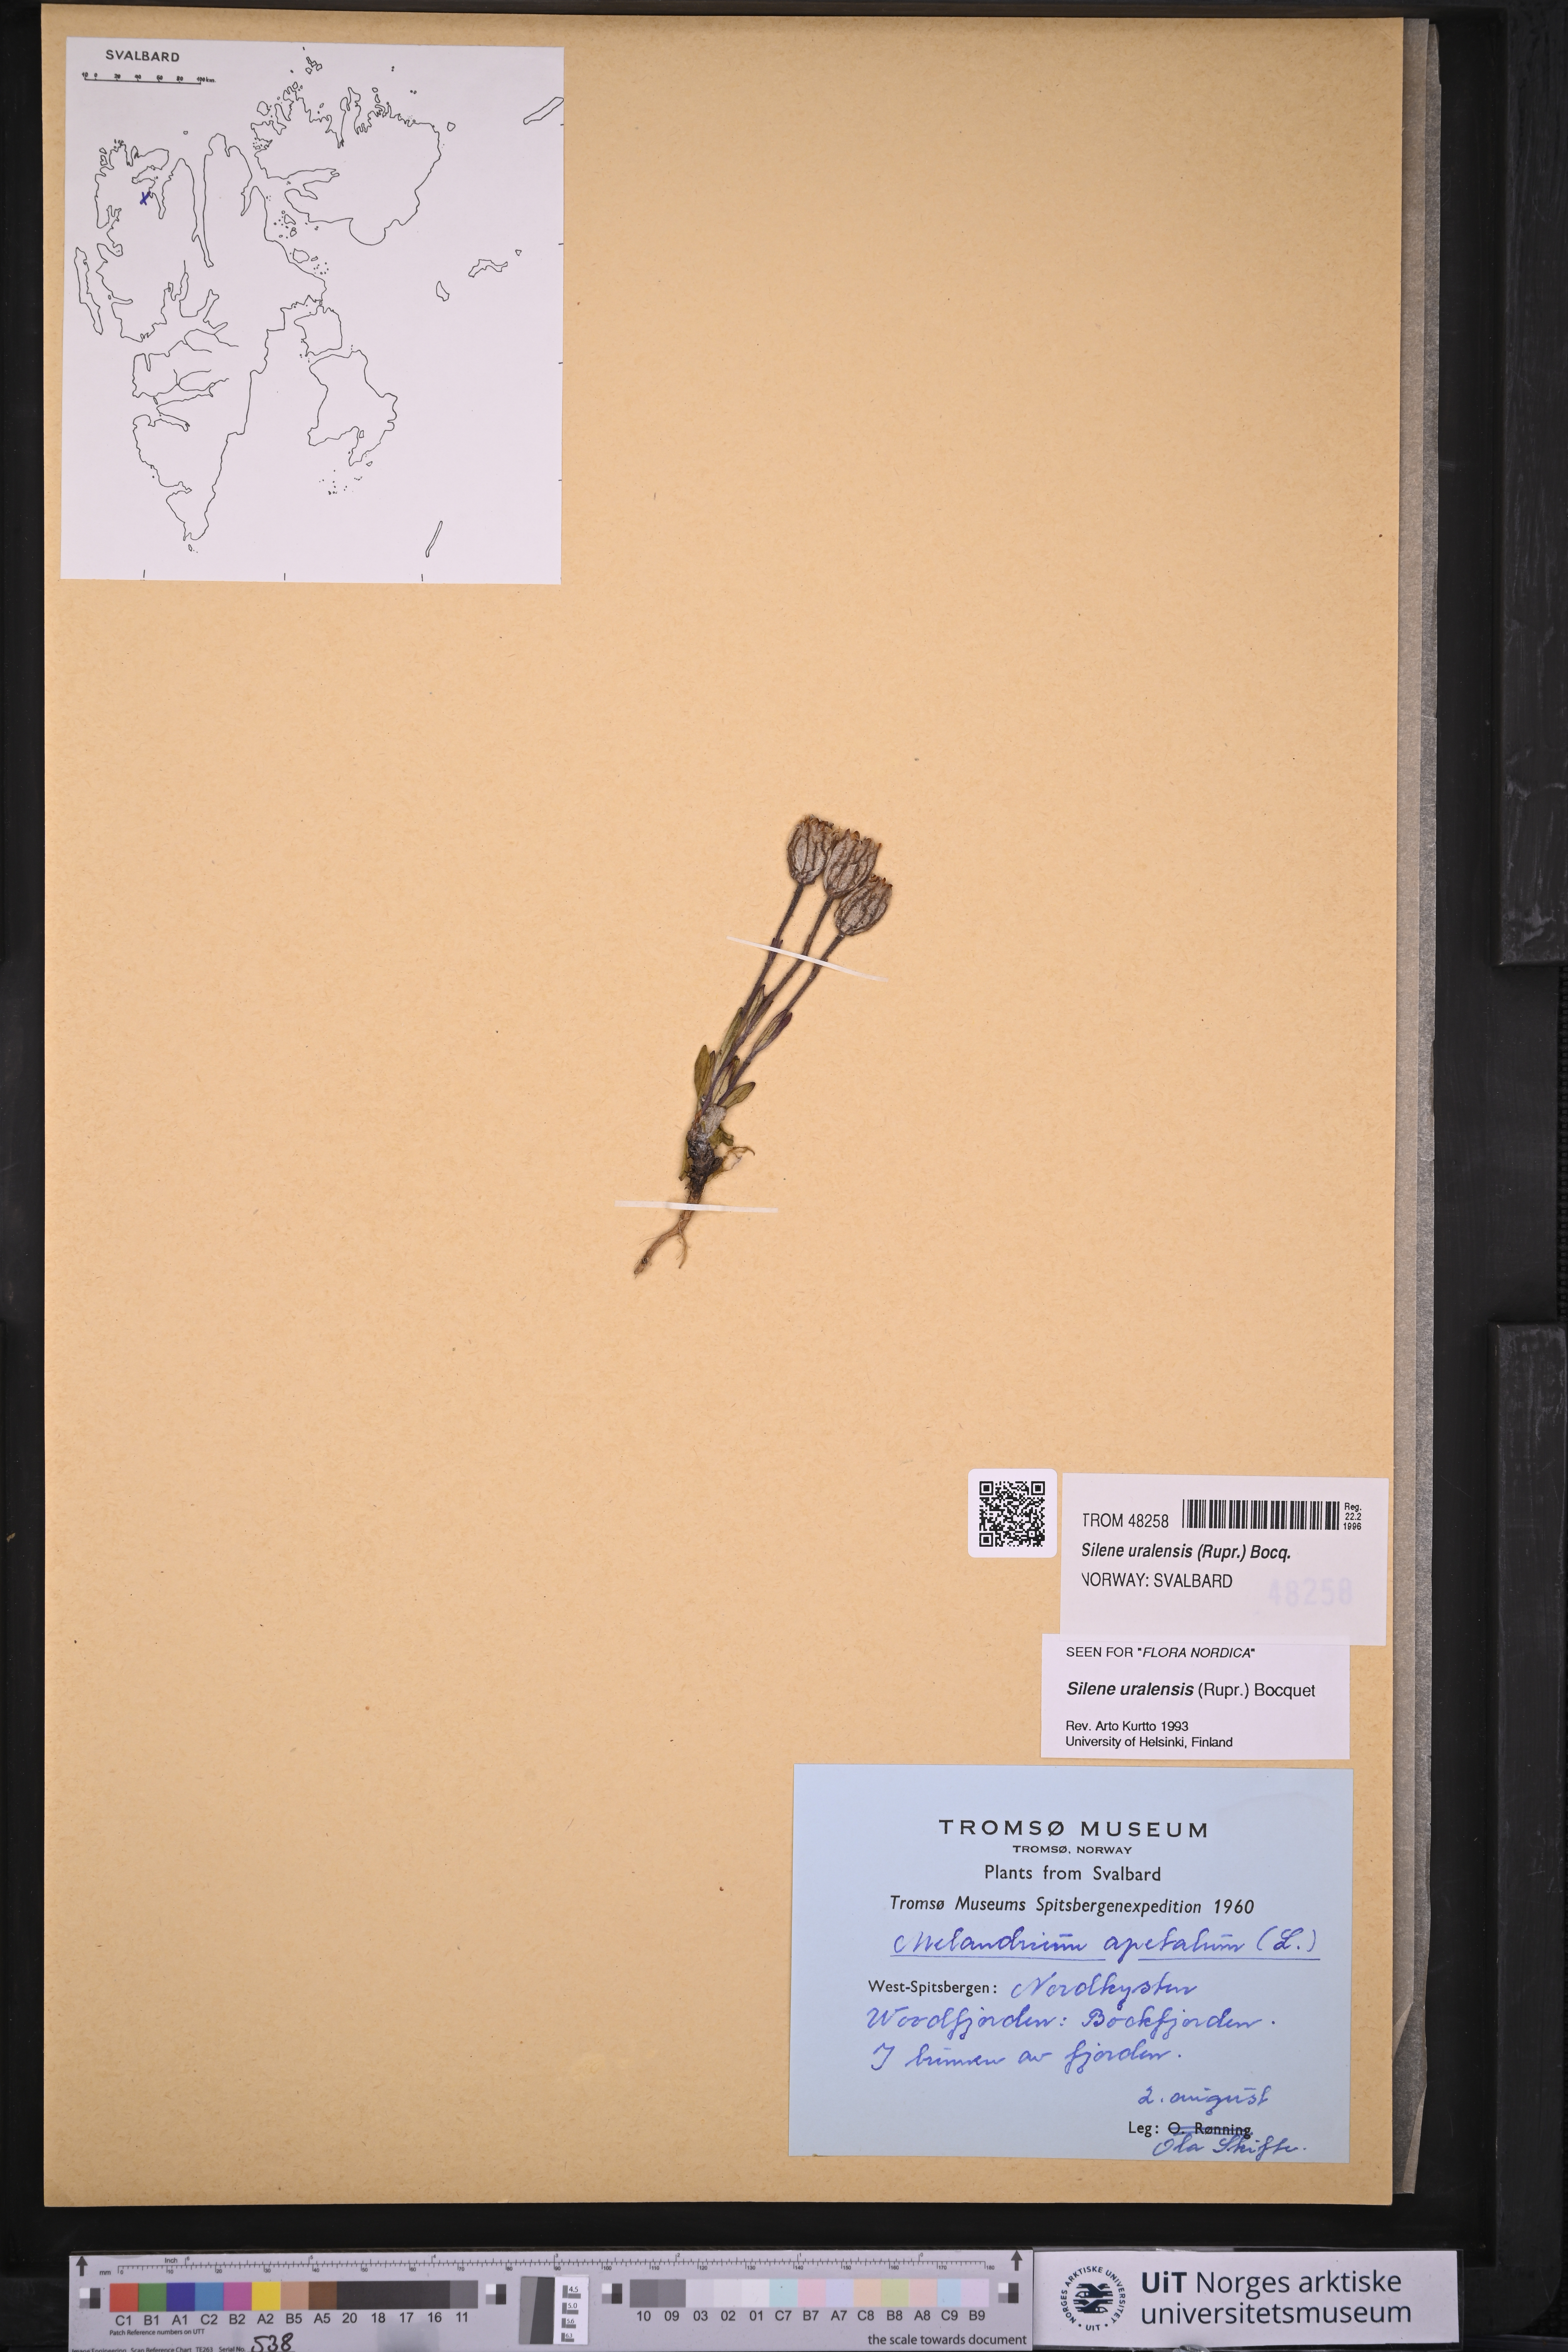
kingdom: Plantae
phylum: Tracheophyta
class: Magnoliopsida
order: Caryophyllales
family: Caryophyllaceae
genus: Silene
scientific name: Silene uralensis
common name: Nodding campion
